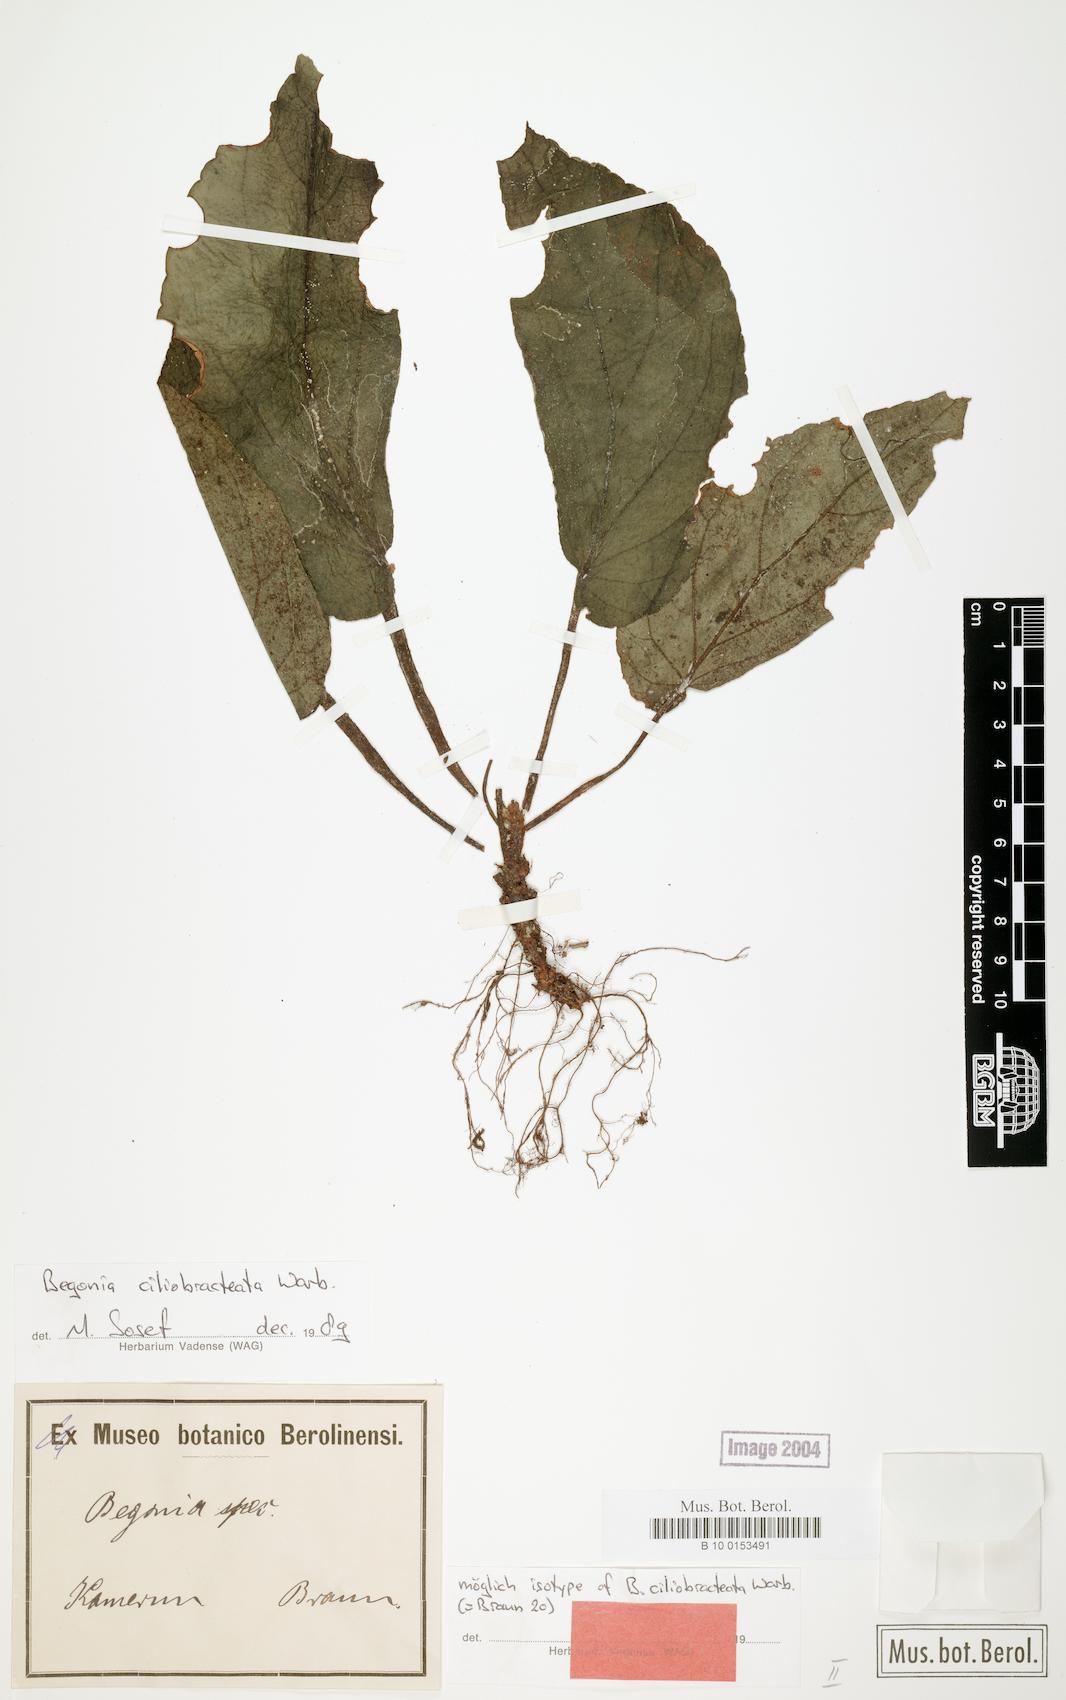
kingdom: Plantae
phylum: Tracheophyta
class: Magnoliopsida
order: Cucurbitales
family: Begoniaceae
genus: Begonia
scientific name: Begonia ciliobracteata
